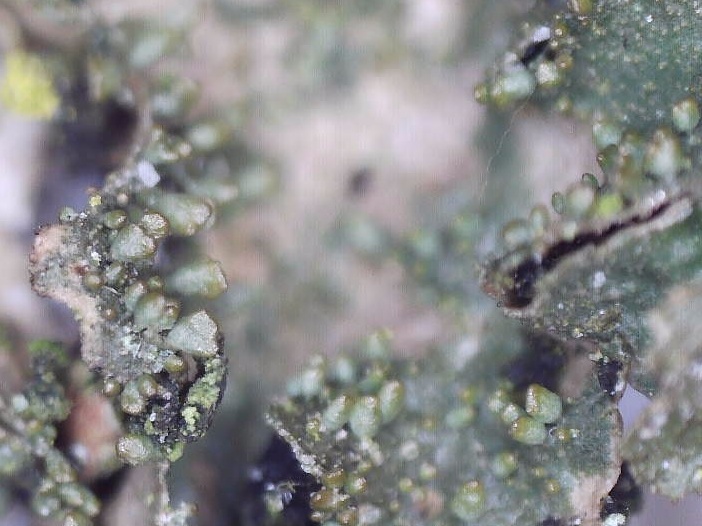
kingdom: Fungi
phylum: Ascomycota
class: Lecanoromycetes
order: Lecanorales
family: Parmeliaceae
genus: Melanohalea
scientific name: Melanohalea exasperatula
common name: kølle-skållav
